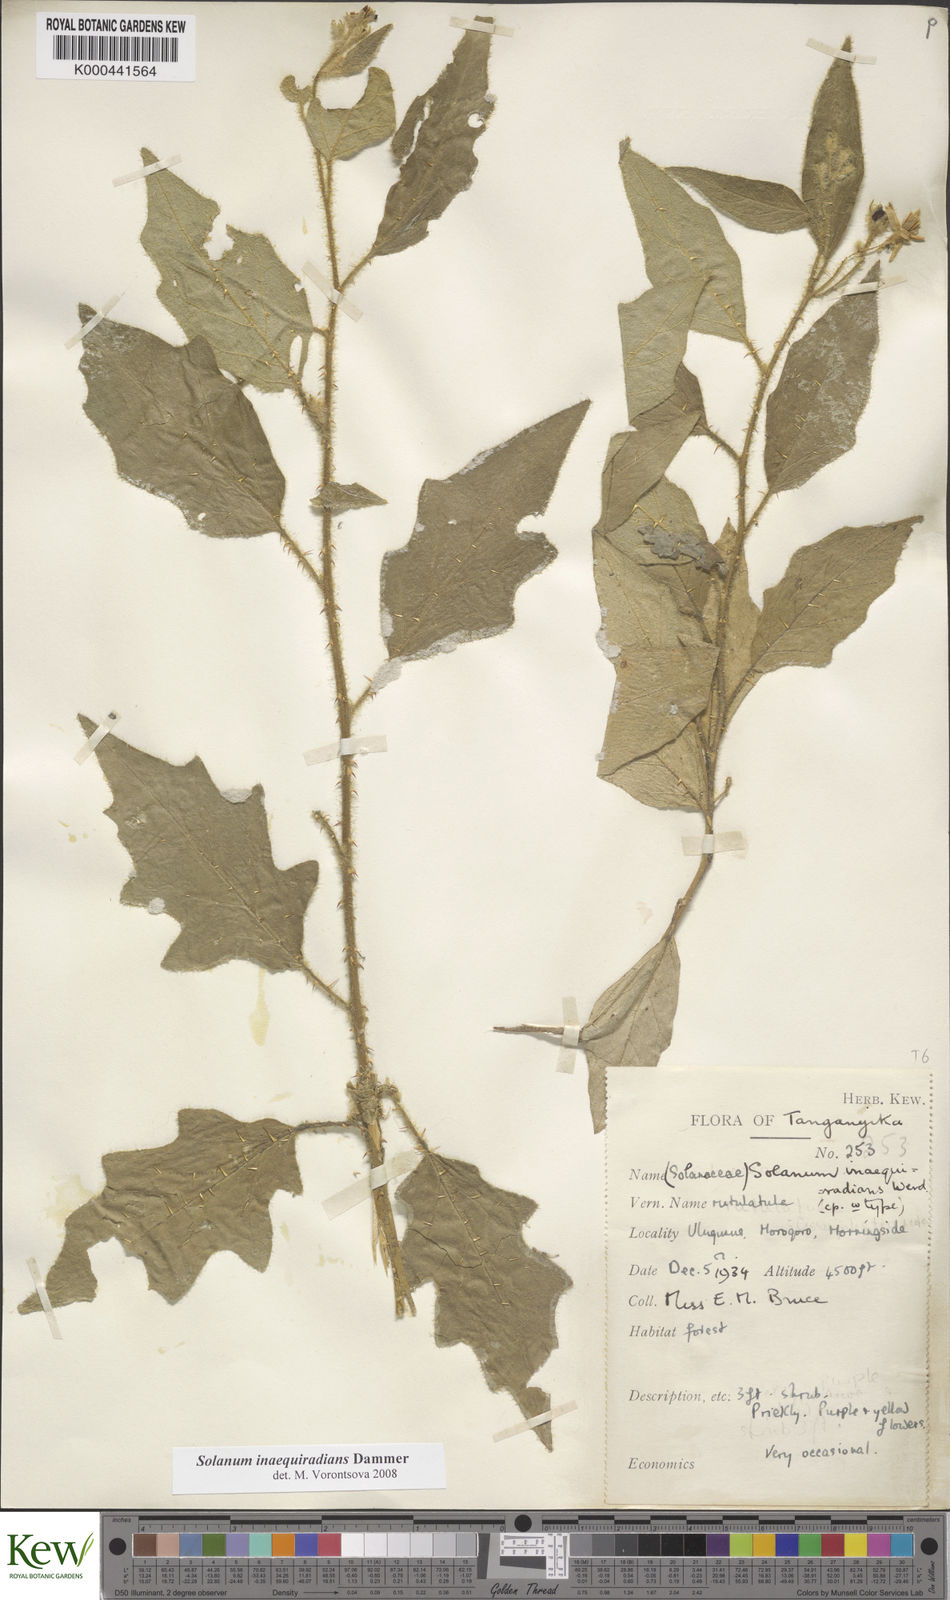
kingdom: Plantae
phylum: Tracheophyta
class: Magnoliopsida
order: Solanales
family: Solanaceae
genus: Solanum
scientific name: Solanum inaequiradians
